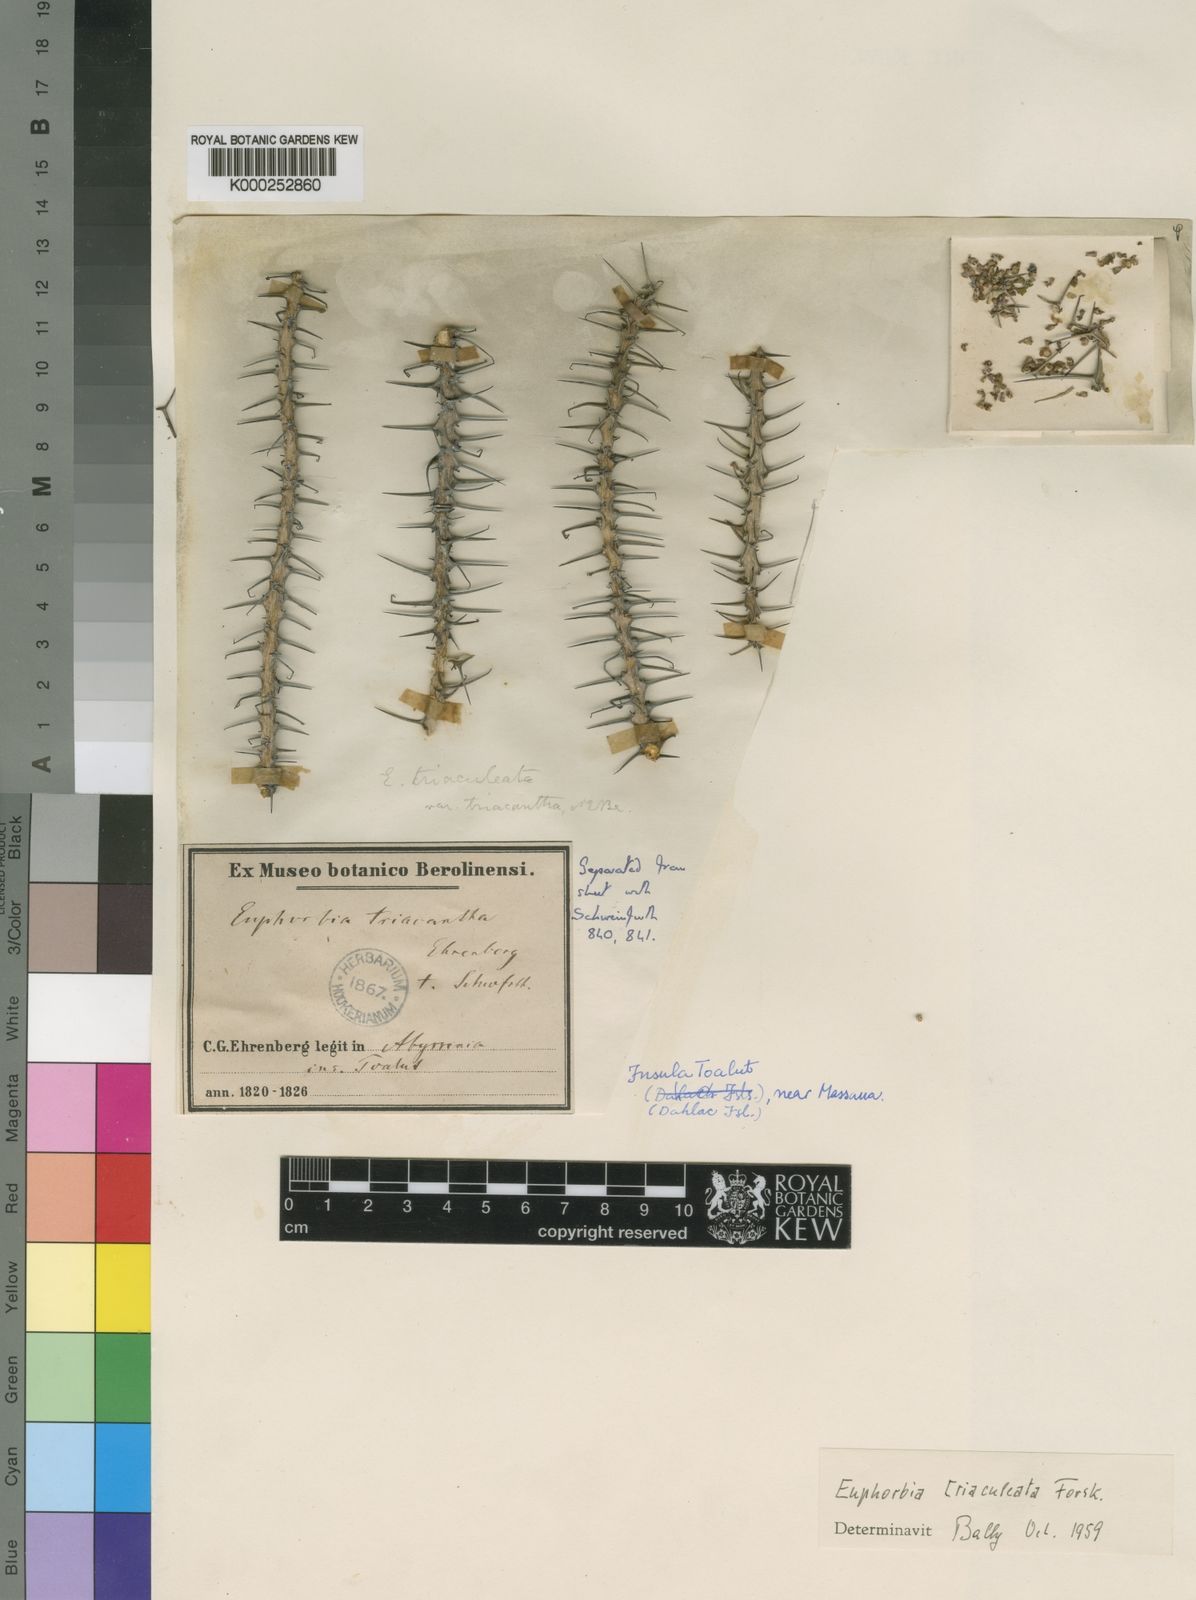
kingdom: Plantae
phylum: Tracheophyta
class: Magnoliopsida
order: Malpighiales
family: Euphorbiaceae
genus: Euphorbia
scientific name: Euphorbia triaculeata
